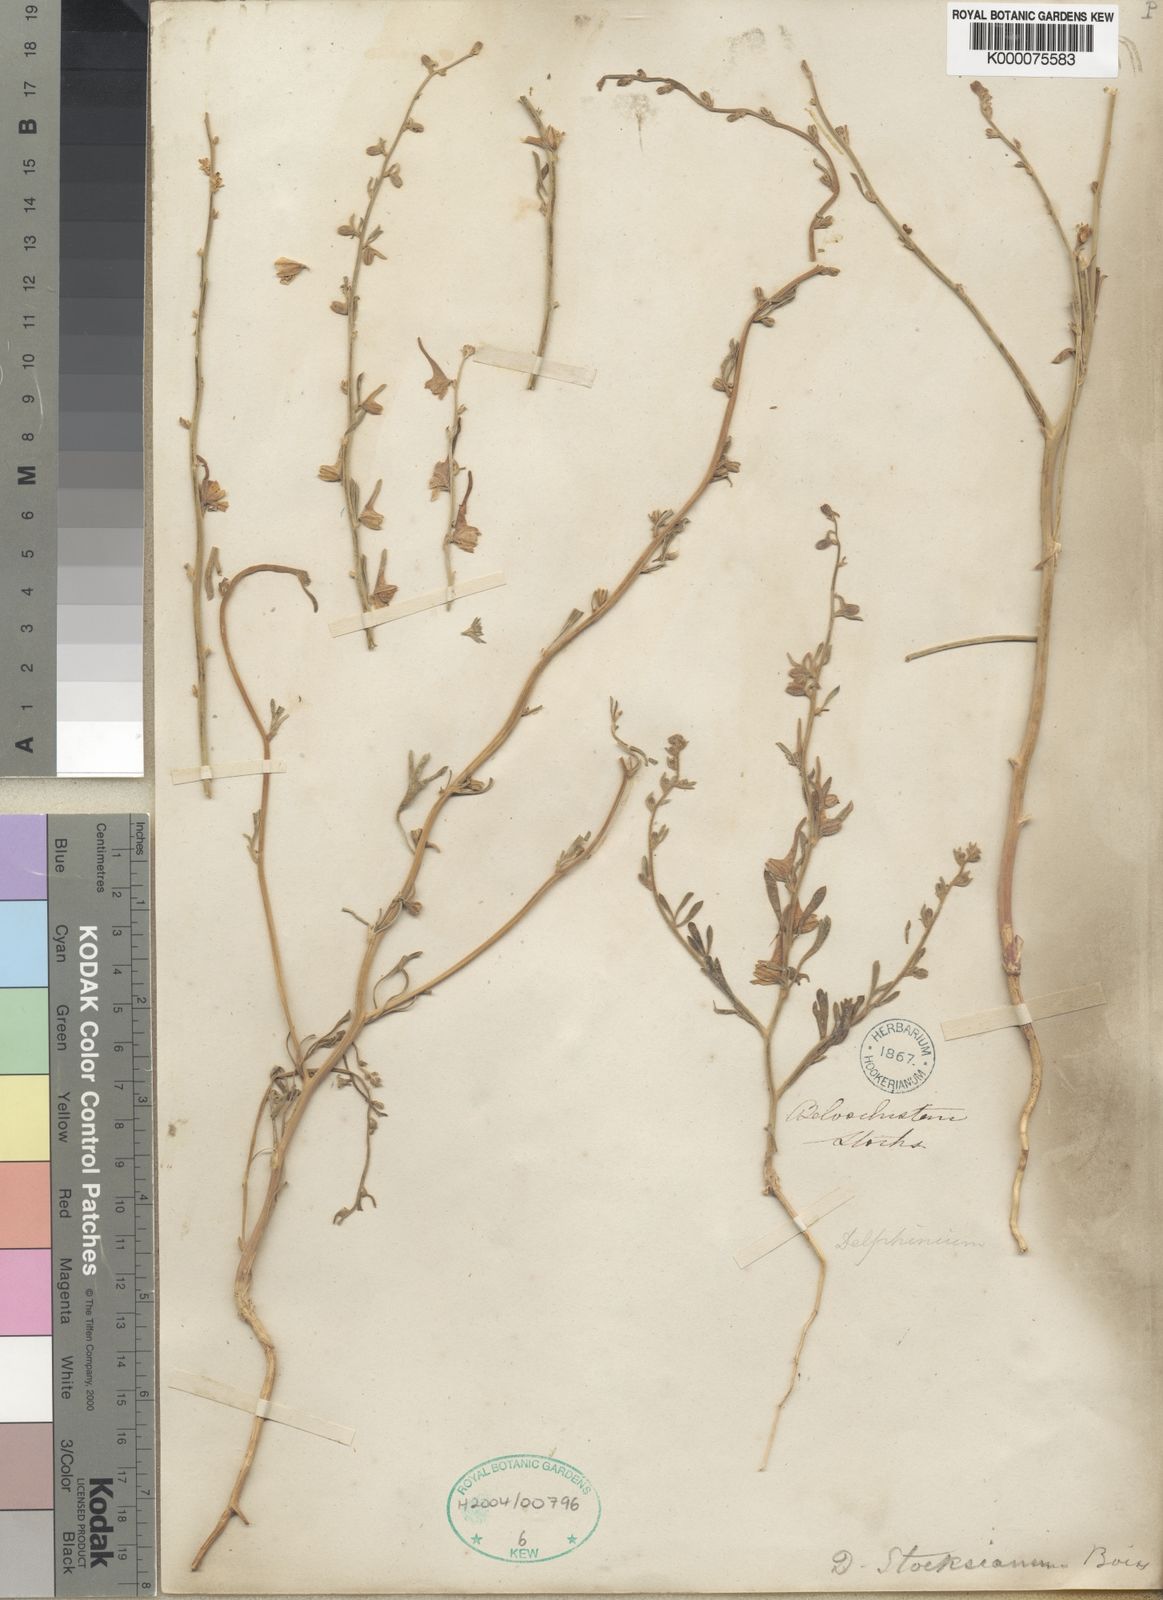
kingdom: Plantae
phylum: Tracheophyta
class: Magnoliopsida
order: Ranunculales
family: Ranunculaceae
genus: Delphinium
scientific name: Delphinium stocksianum
